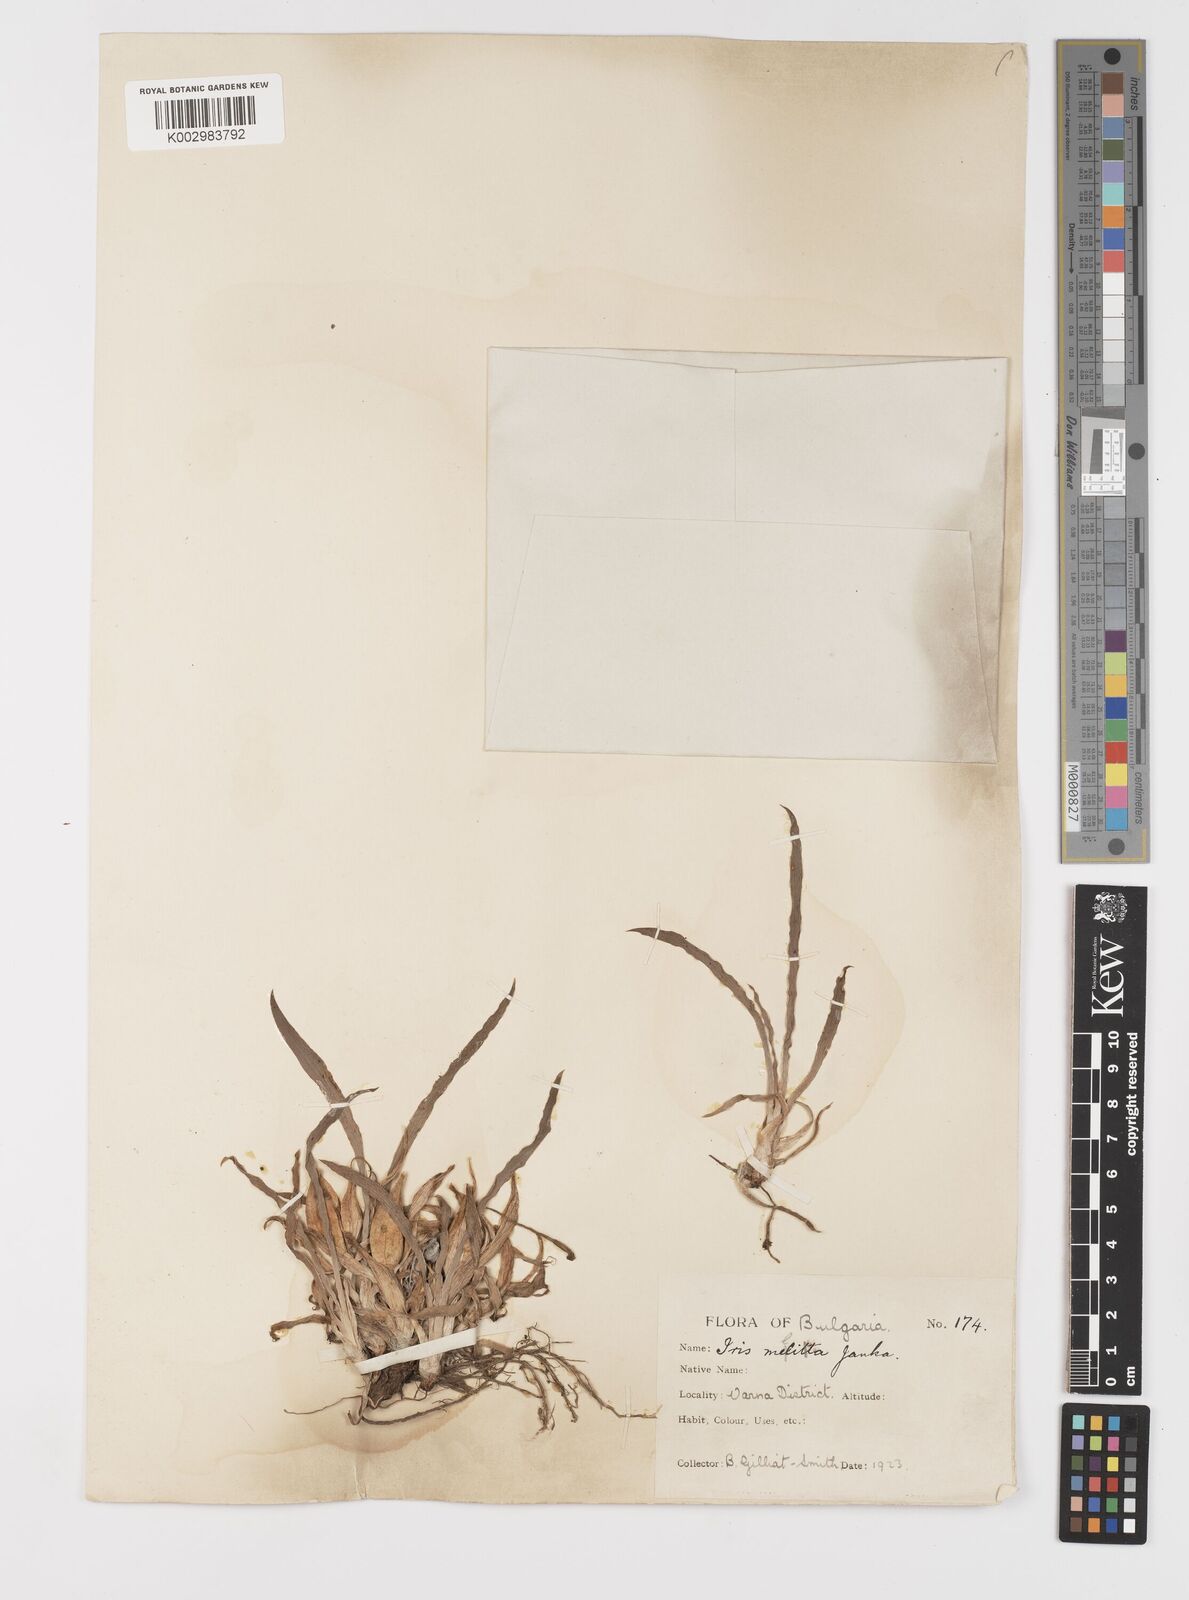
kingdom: Plantae
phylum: Tracheophyta
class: Liliopsida
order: Asparagales
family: Iridaceae
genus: Iris
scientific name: Iris suaveolens
